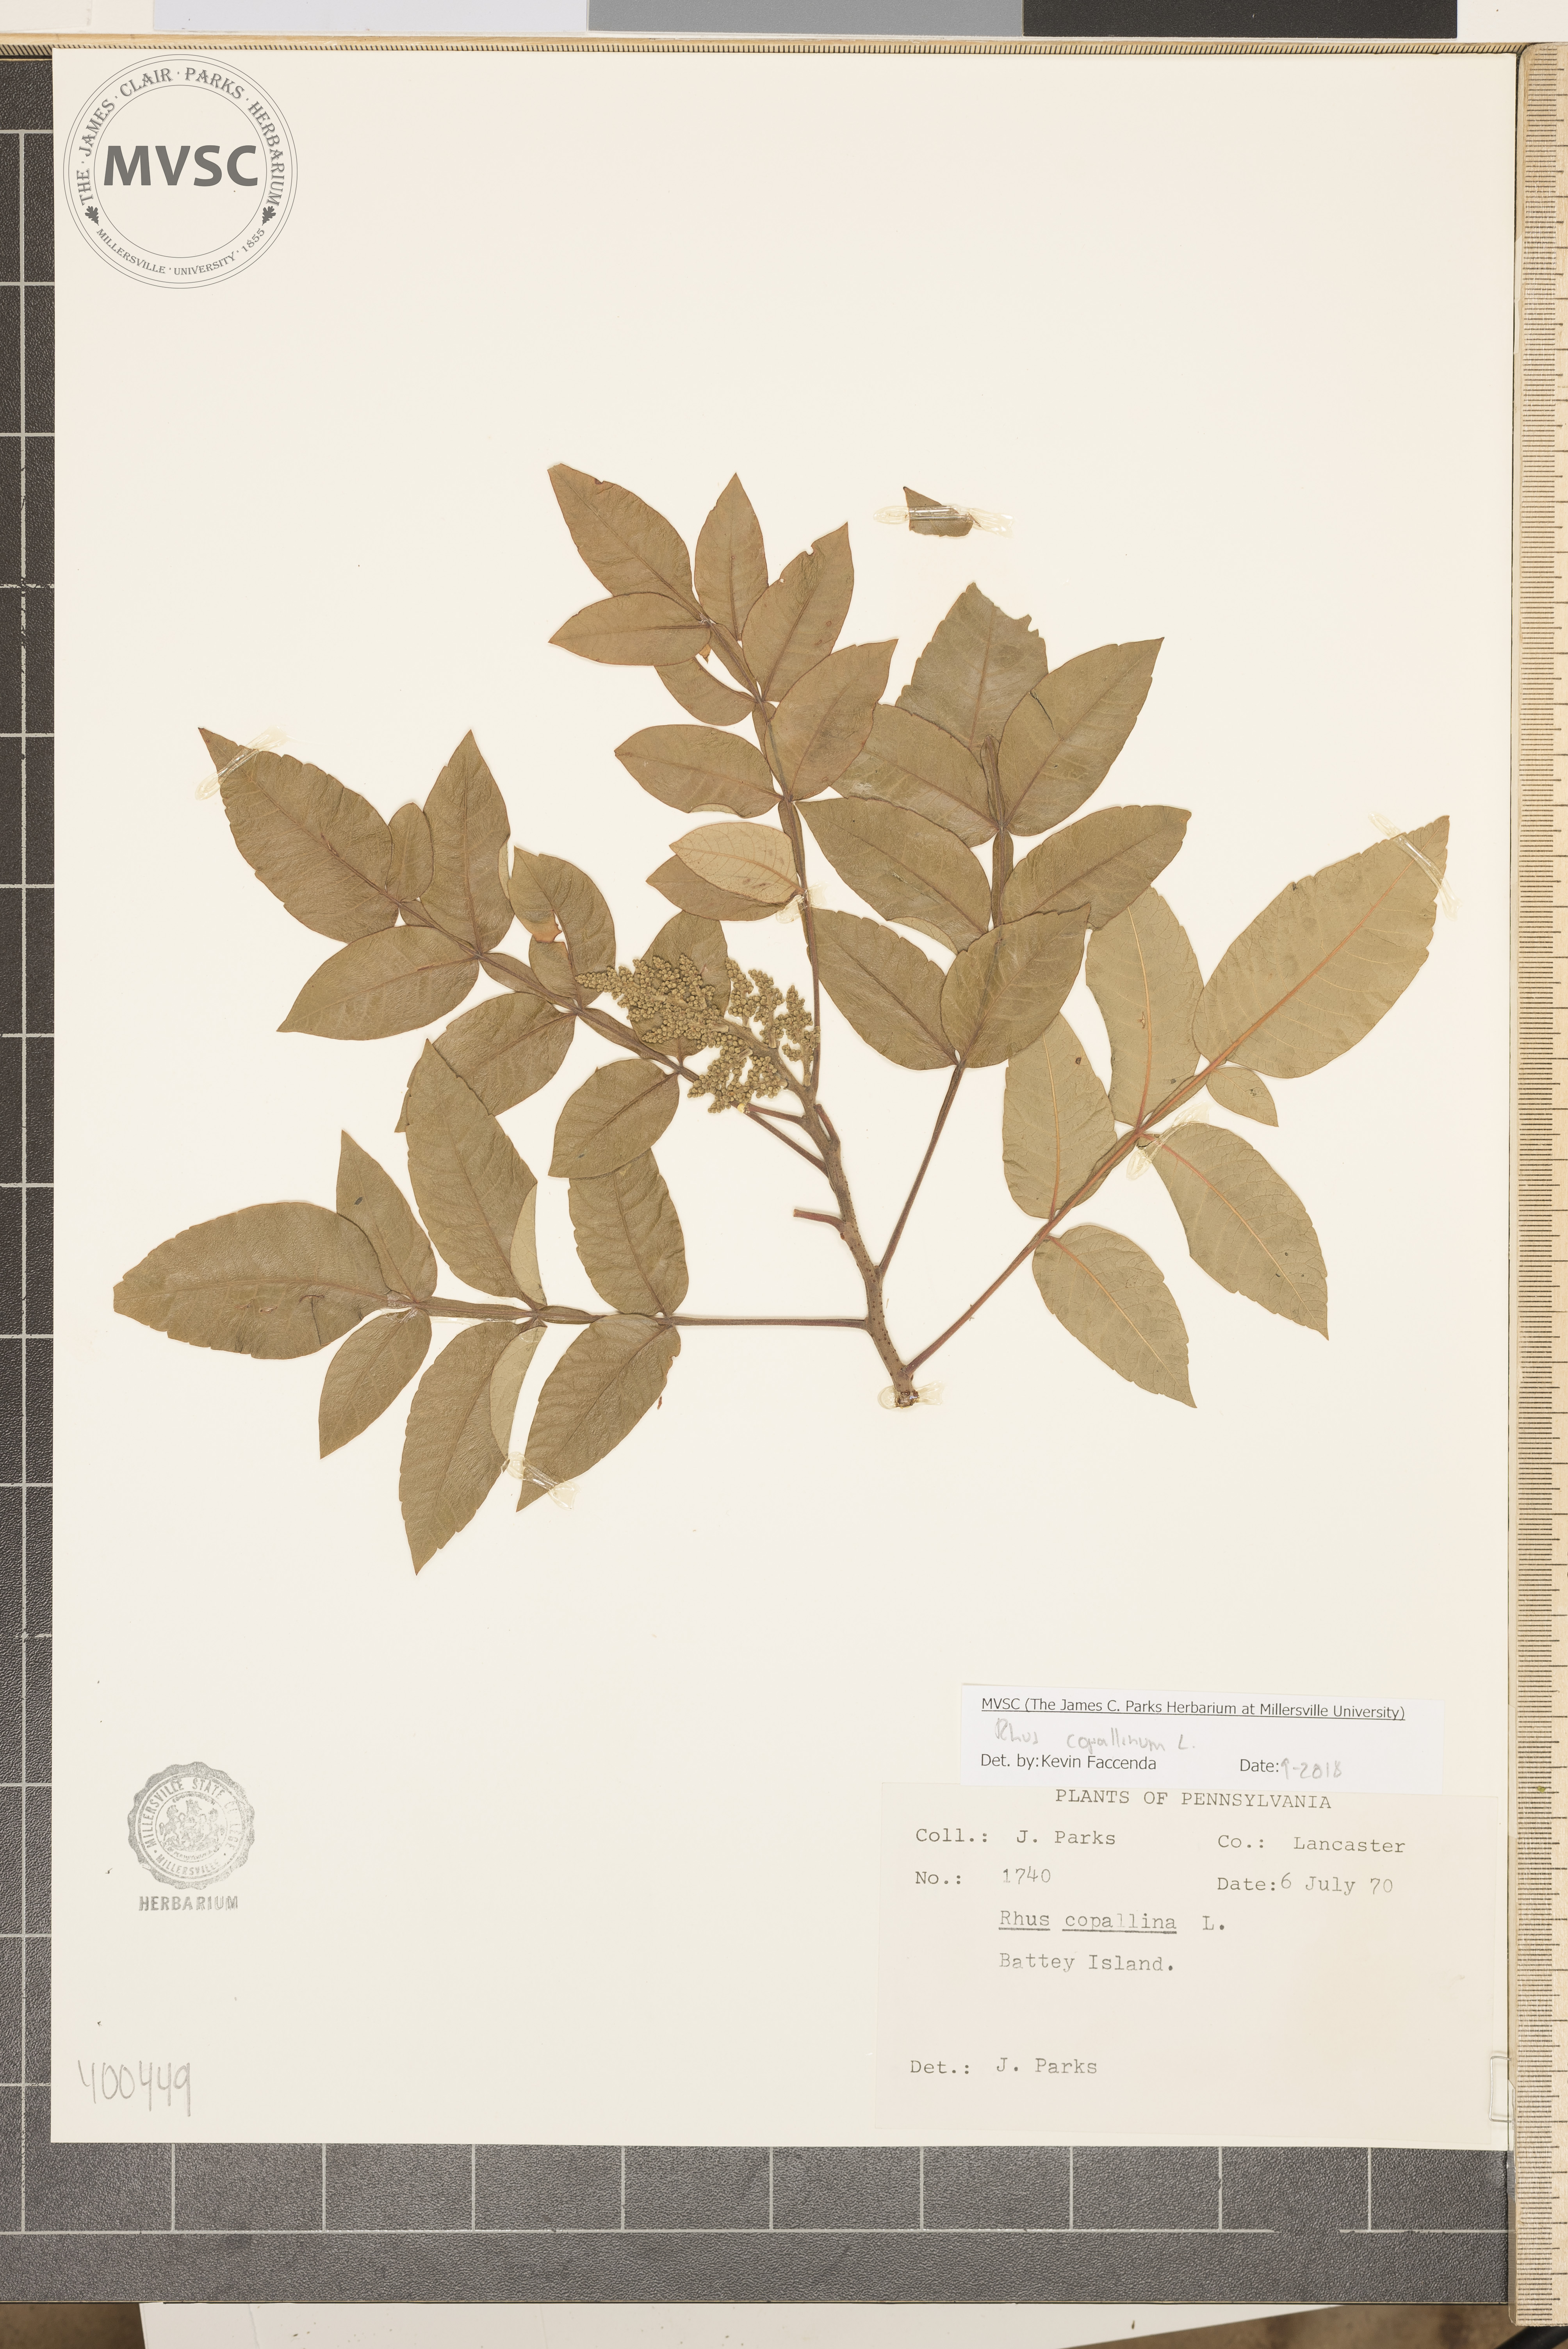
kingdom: Plantae
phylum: Tracheophyta
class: Magnoliopsida
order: Sapindales
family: Anacardiaceae
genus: Rhus
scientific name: Rhus copallina
